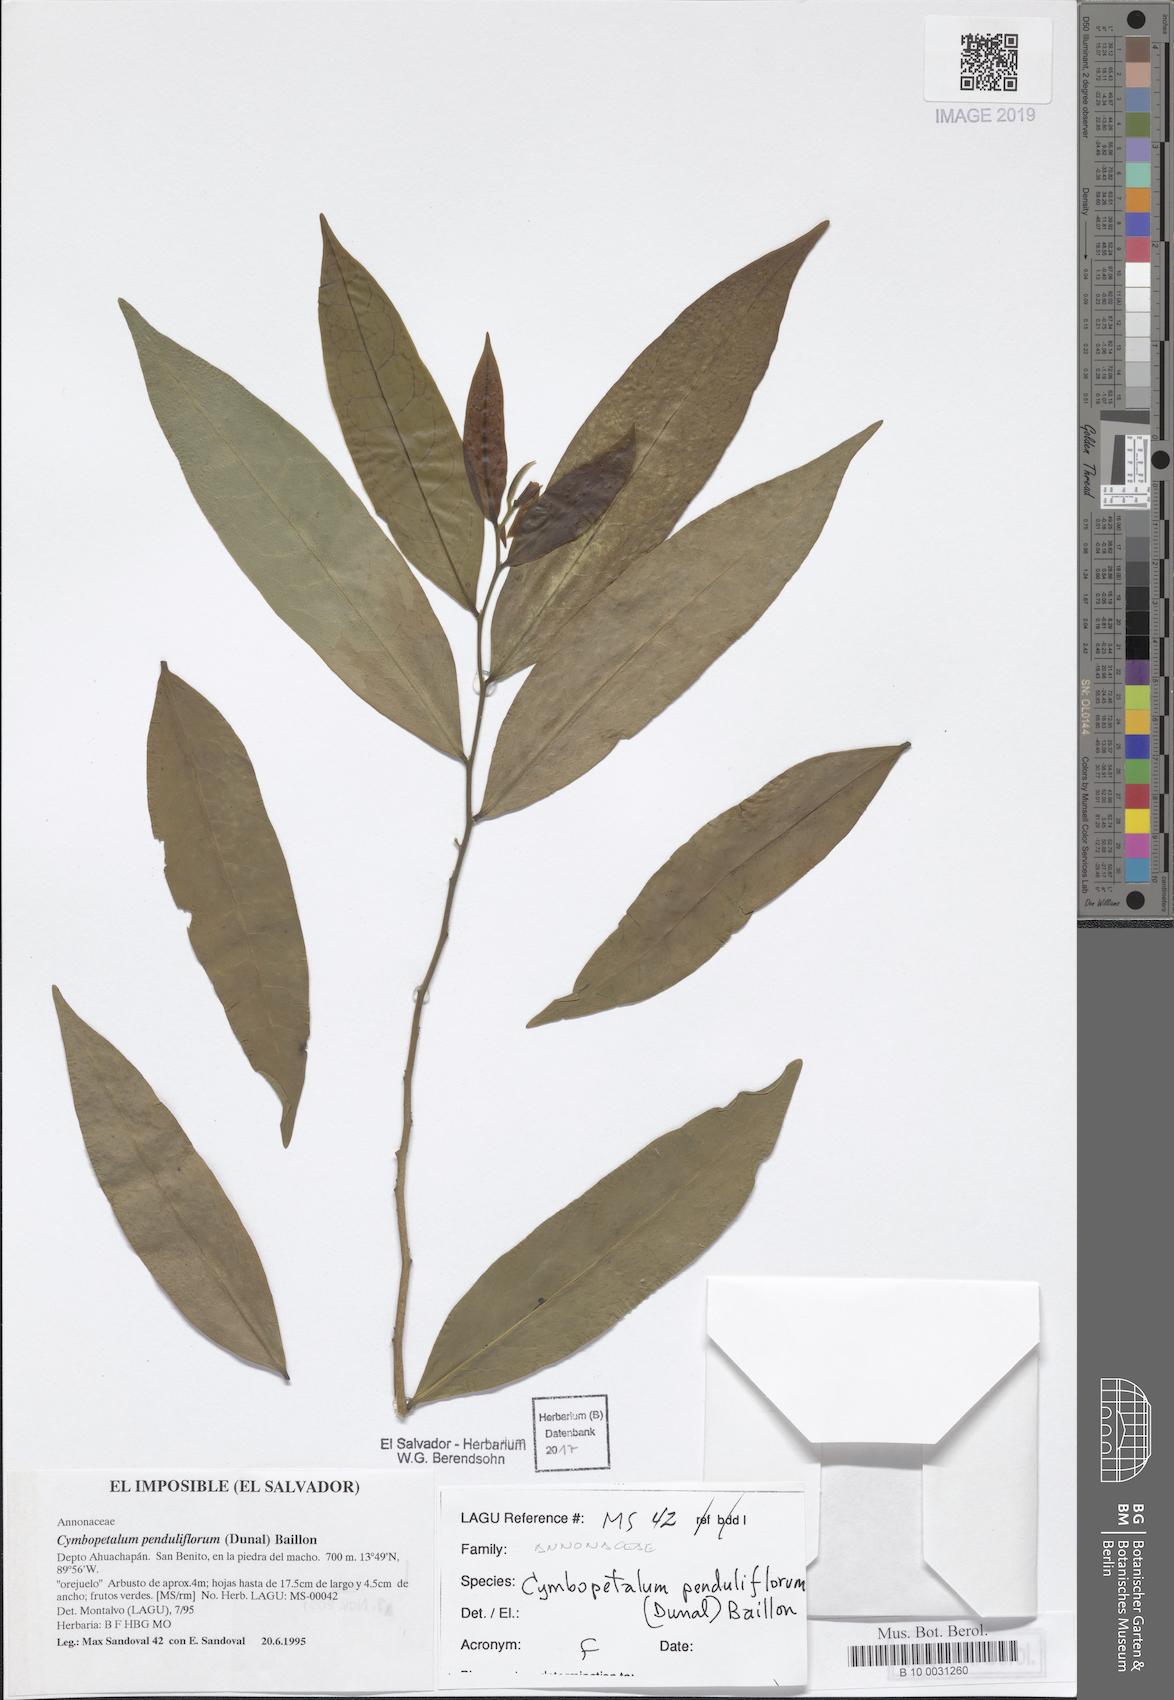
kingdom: Plantae
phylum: Tracheophyta
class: Magnoliopsida
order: Magnoliales
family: Annonaceae
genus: Cymbopetalum
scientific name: Cymbopetalum penduliflorum
